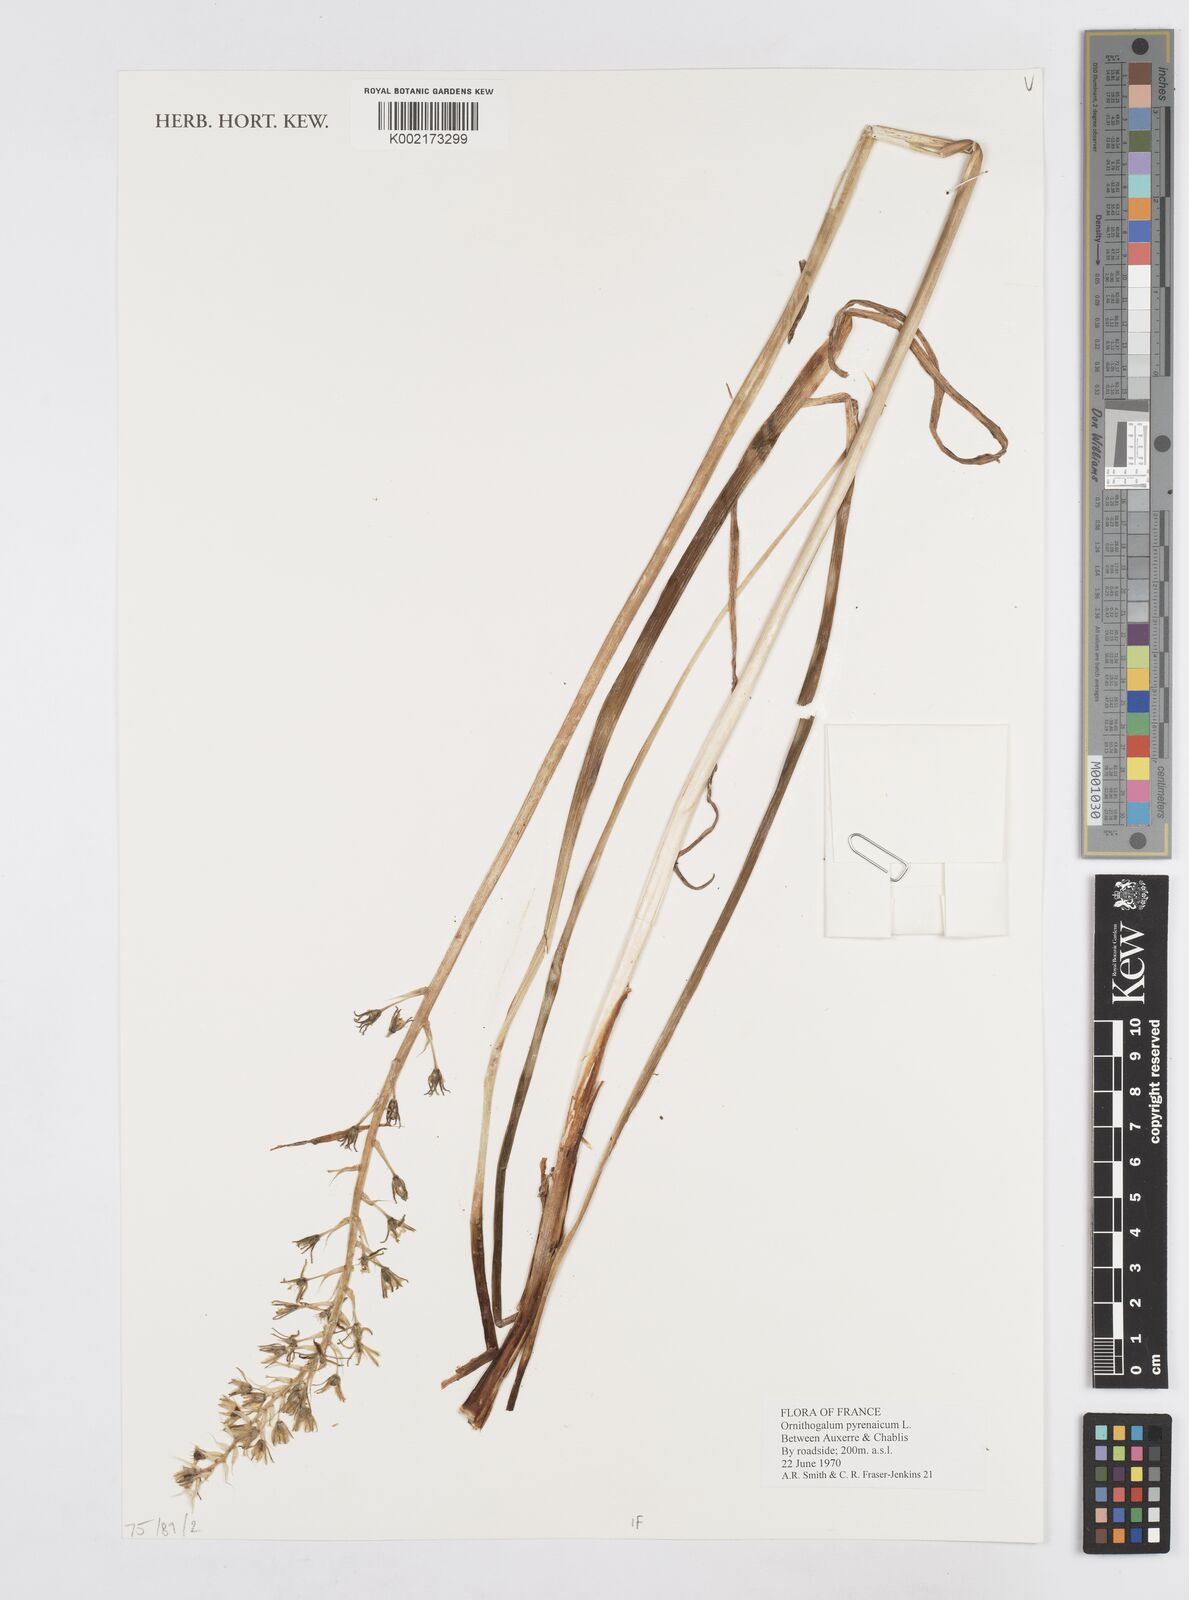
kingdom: Plantae
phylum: Tracheophyta
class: Liliopsida
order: Asparagales
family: Asparagaceae
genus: Ornithogalum
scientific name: Ornithogalum sphaerocarpum
